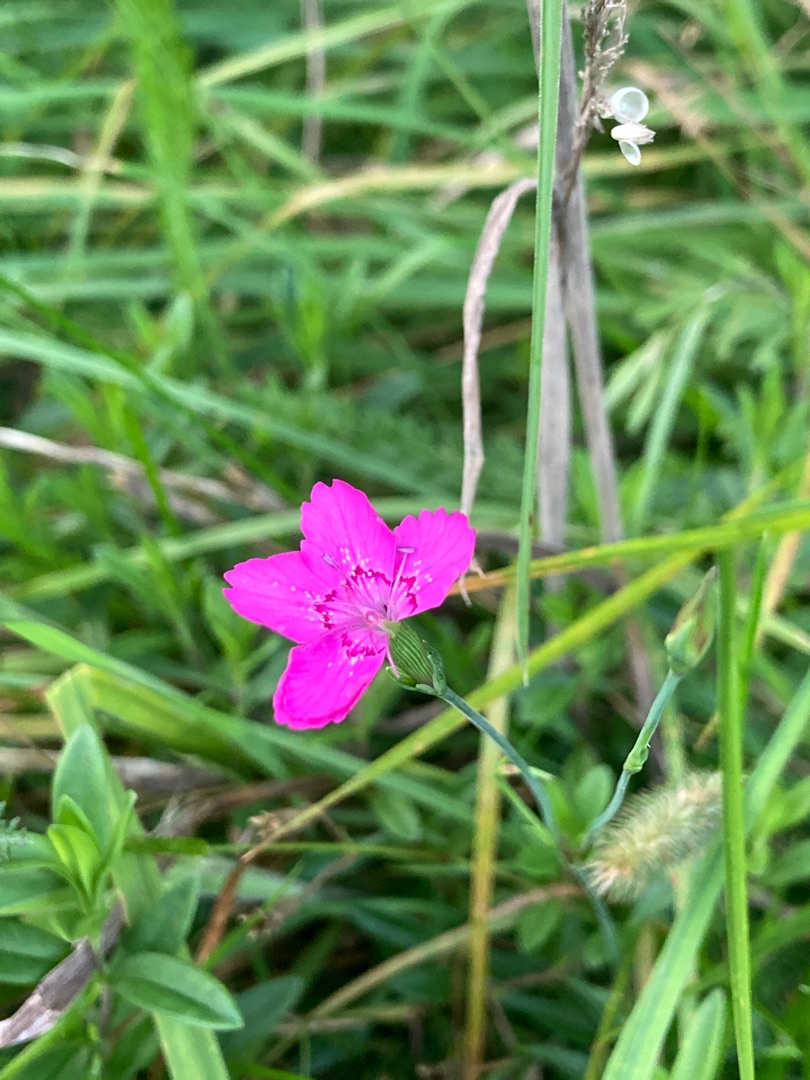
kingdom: Plantae
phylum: Tracheophyta
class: Magnoliopsida
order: Caryophyllales
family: Caryophyllaceae
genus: Dianthus
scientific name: Dianthus deltoides
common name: Bakke-nellike
